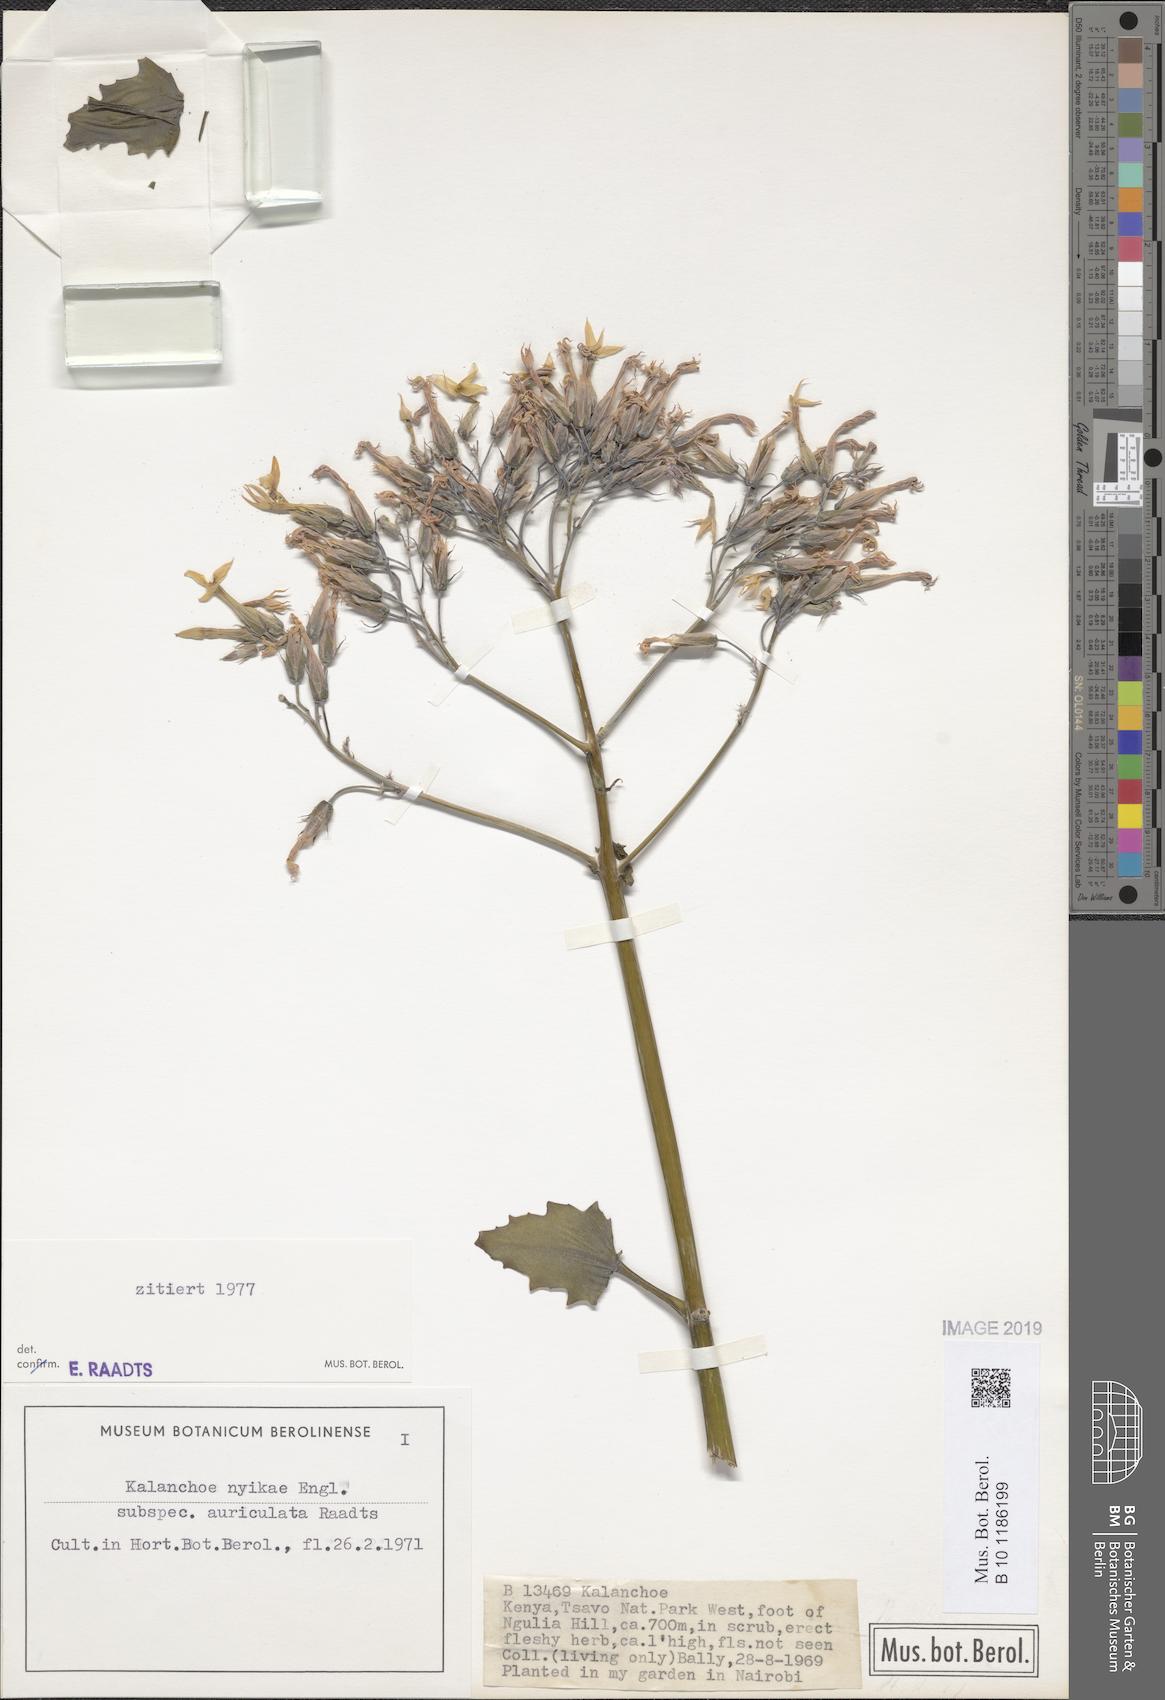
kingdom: Plantae
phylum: Tracheophyta
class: Magnoliopsida
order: Saxifragales
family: Crassulaceae
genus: Kalanchoe
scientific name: Kalanchoe auriculata
